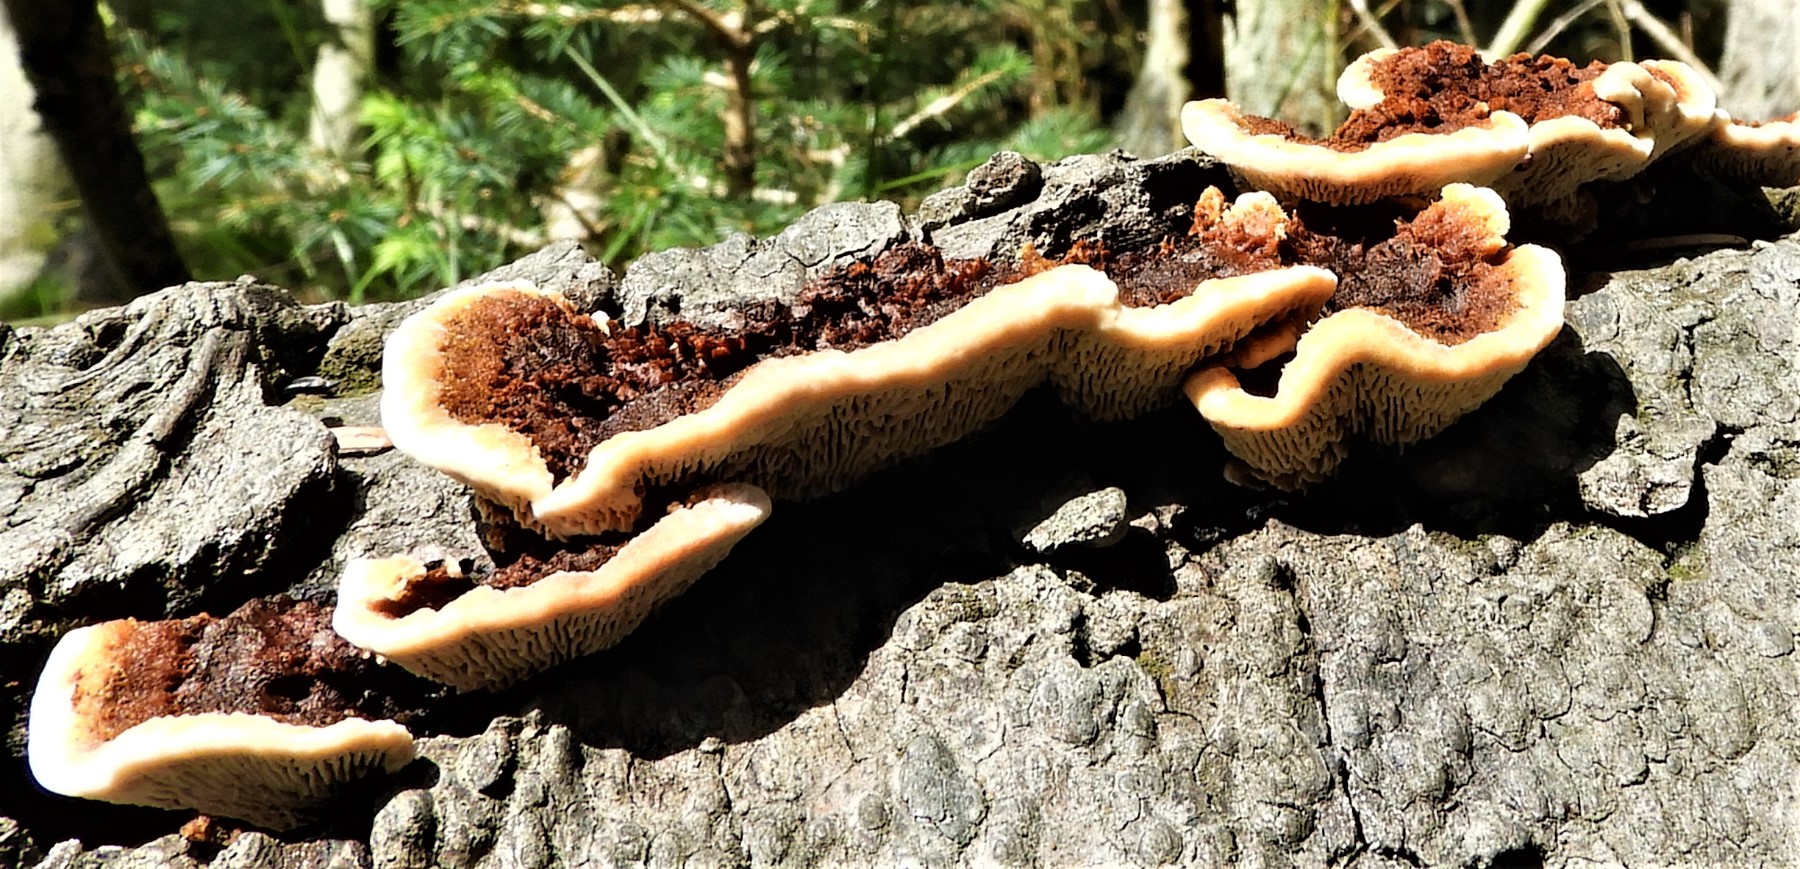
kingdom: Fungi
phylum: Basidiomycota
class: Agaricomycetes
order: Gloeophyllales
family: Gloeophyllaceae
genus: Gloeophyllum
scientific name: Gloeophyllum sepiarium
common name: fyrre-korkhat
